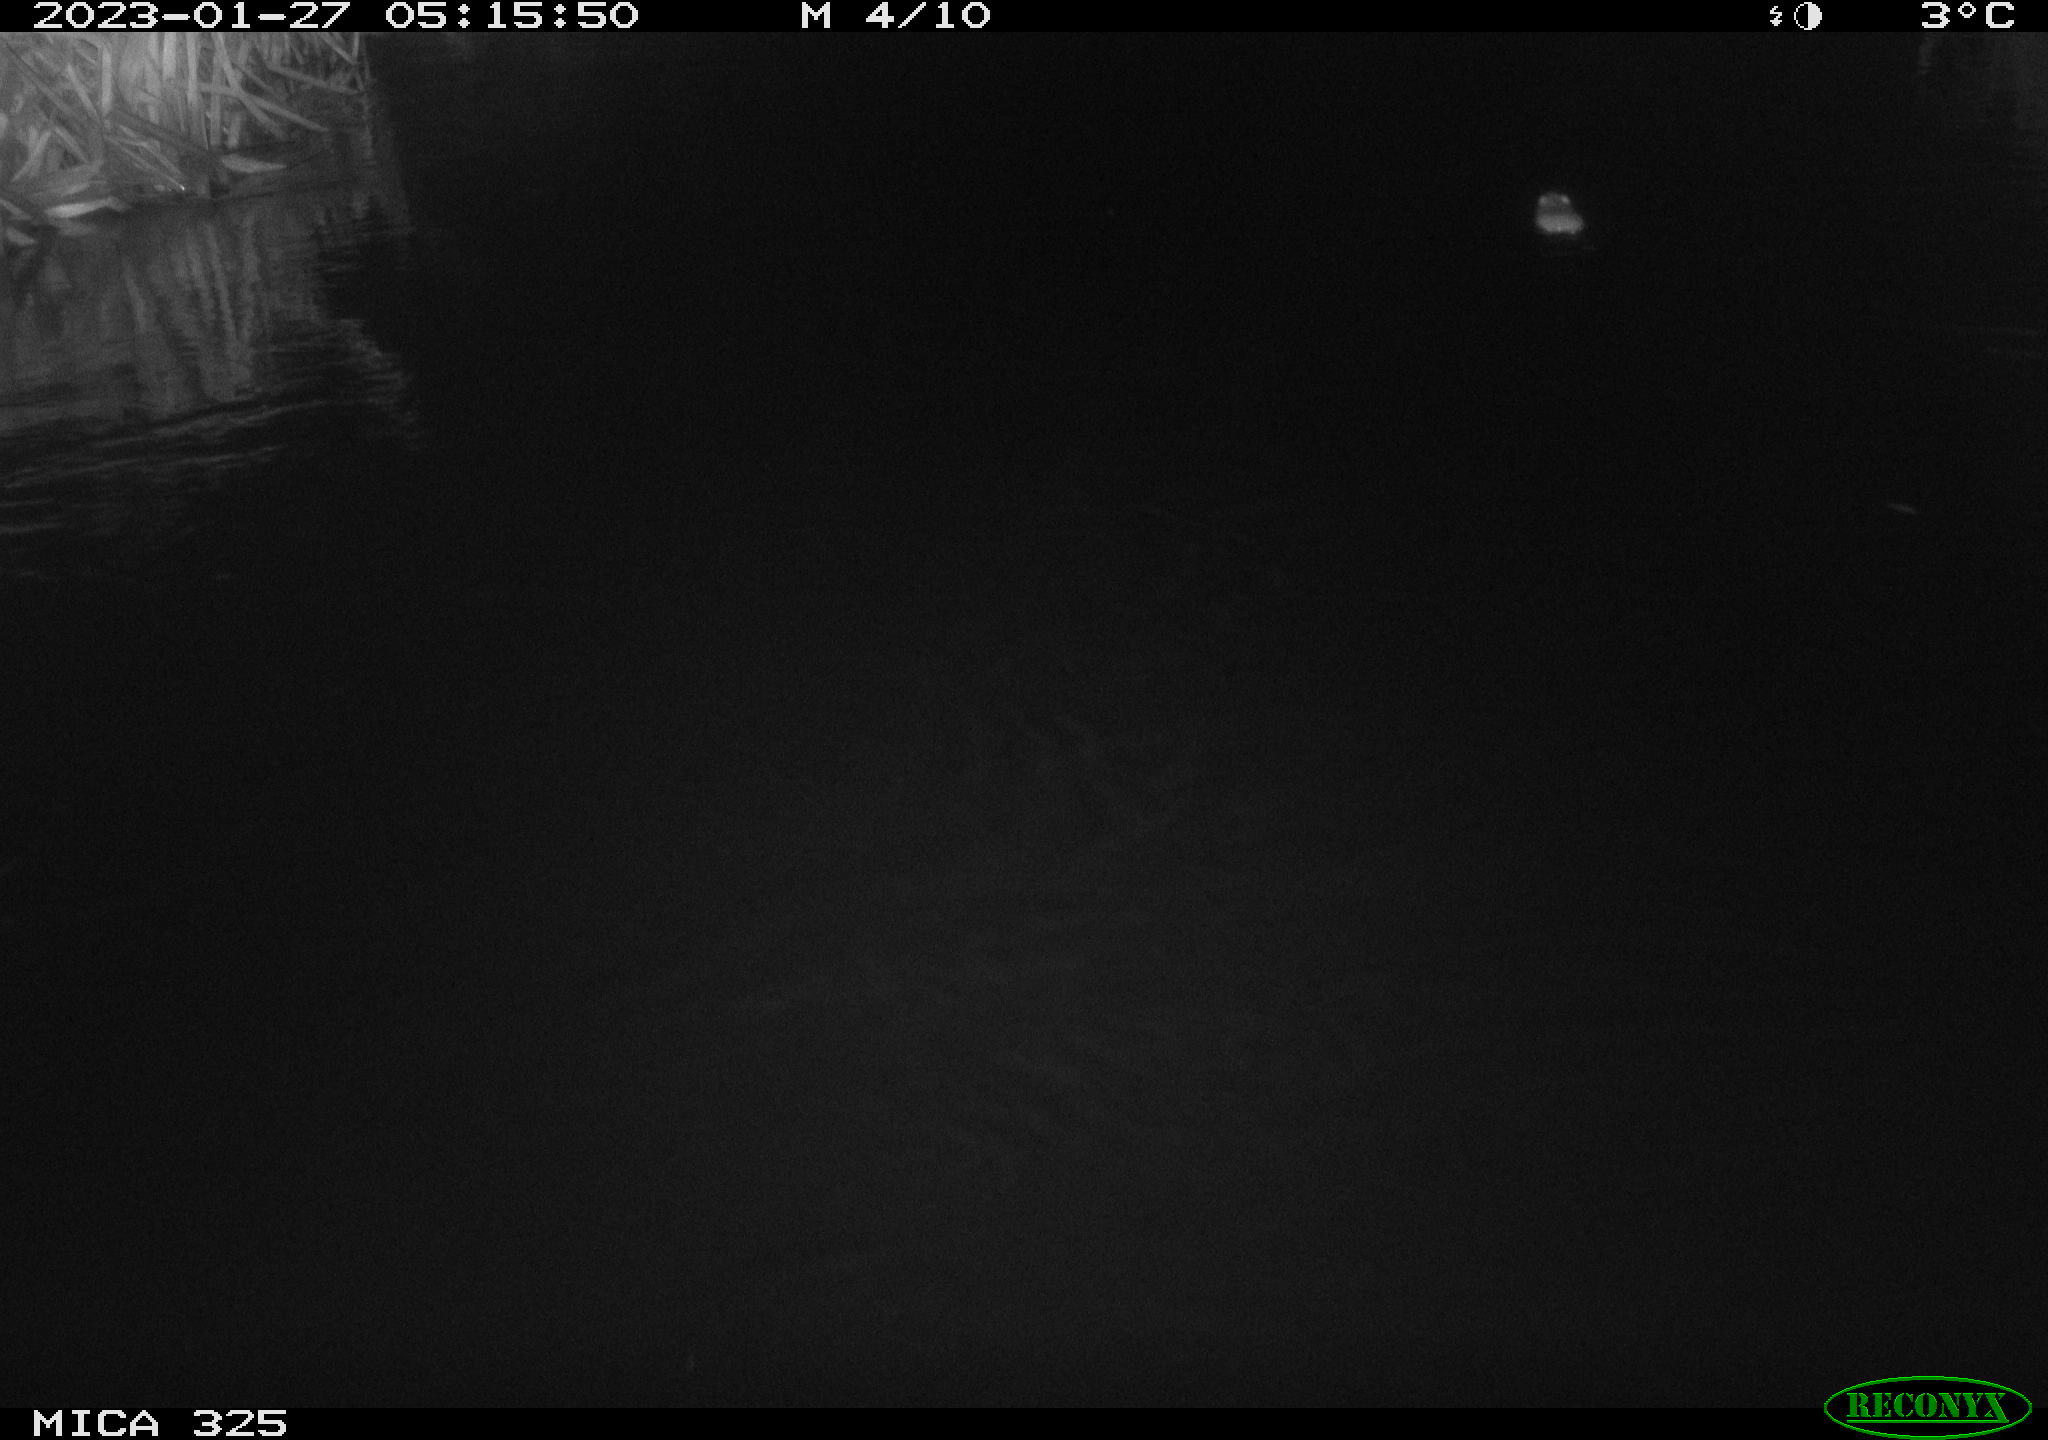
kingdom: Animalia
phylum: Chordata
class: Mammalia
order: Rodentia
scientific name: Rodentia
